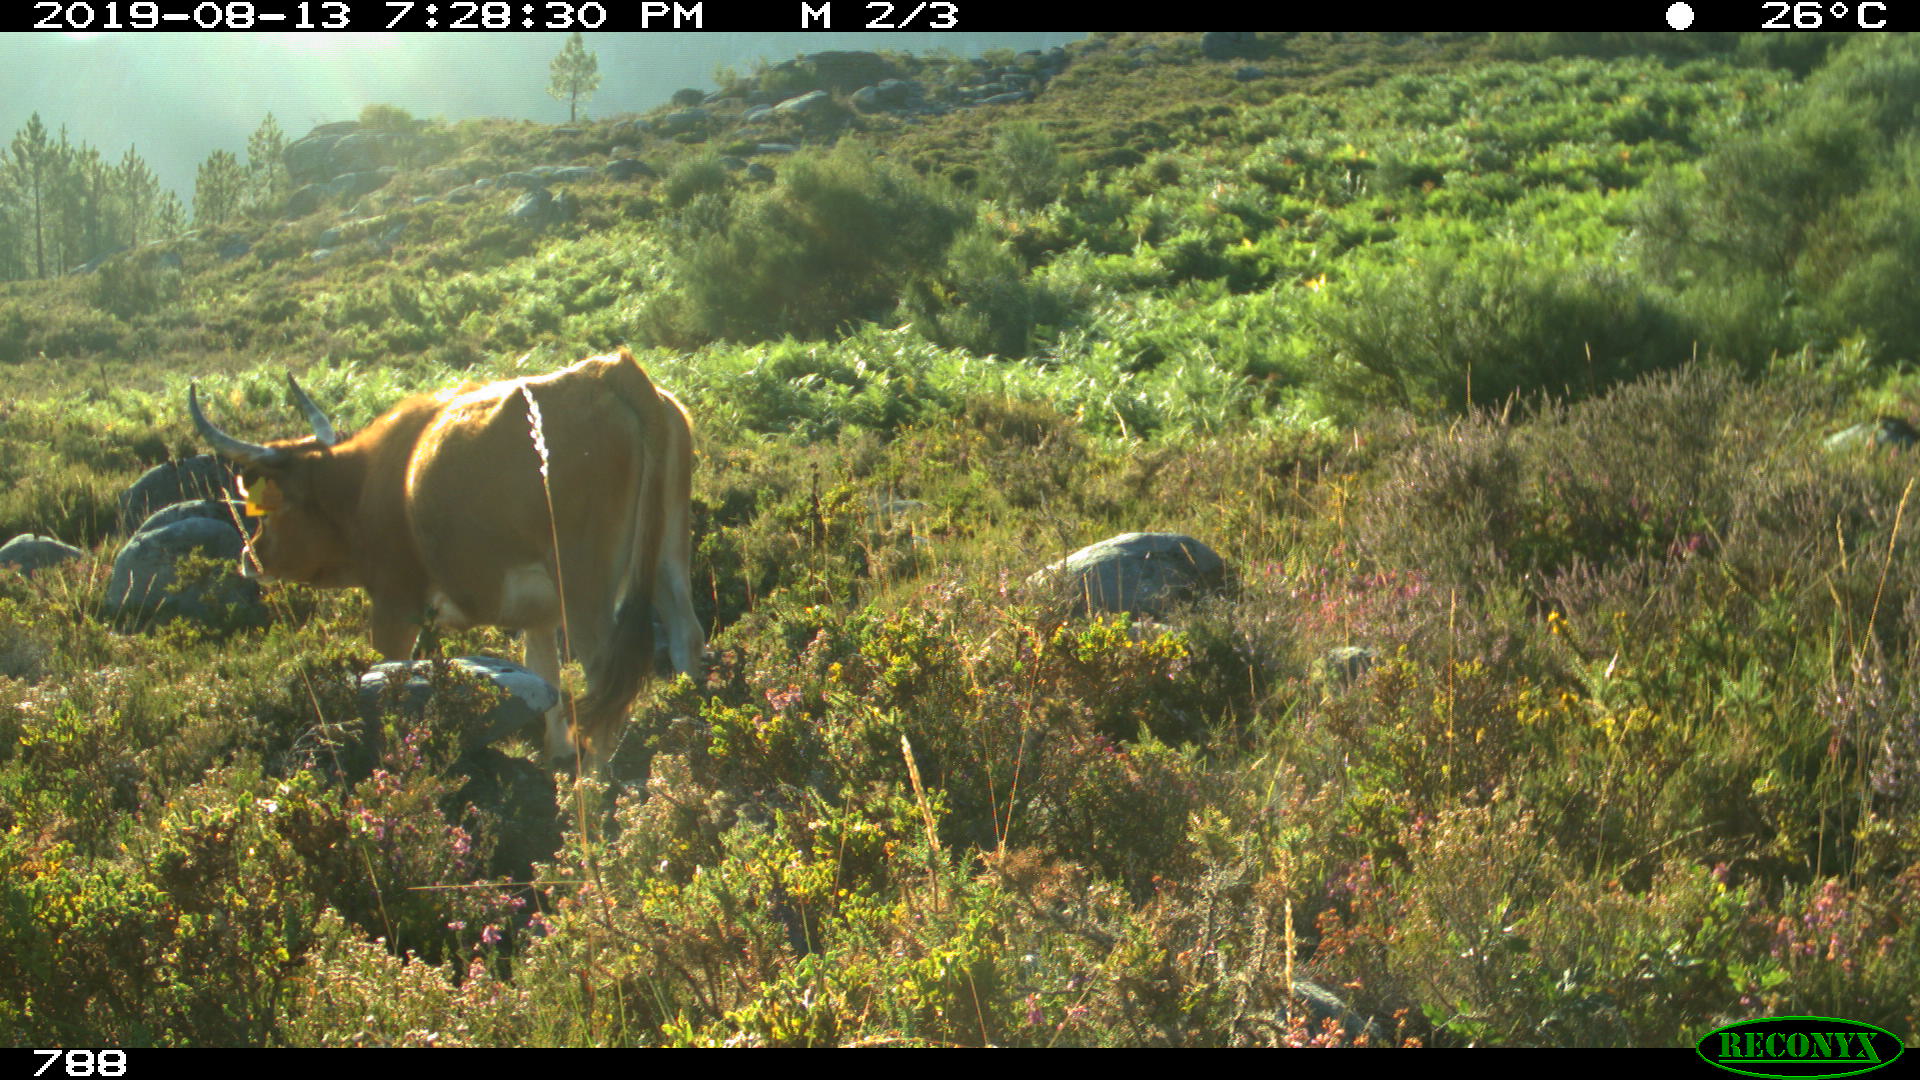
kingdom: Animalia
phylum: Chordata
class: Mammalia
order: Artiodactyla
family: Bovidae
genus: Bos
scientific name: Bos taurus
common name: Domesticated cattle
